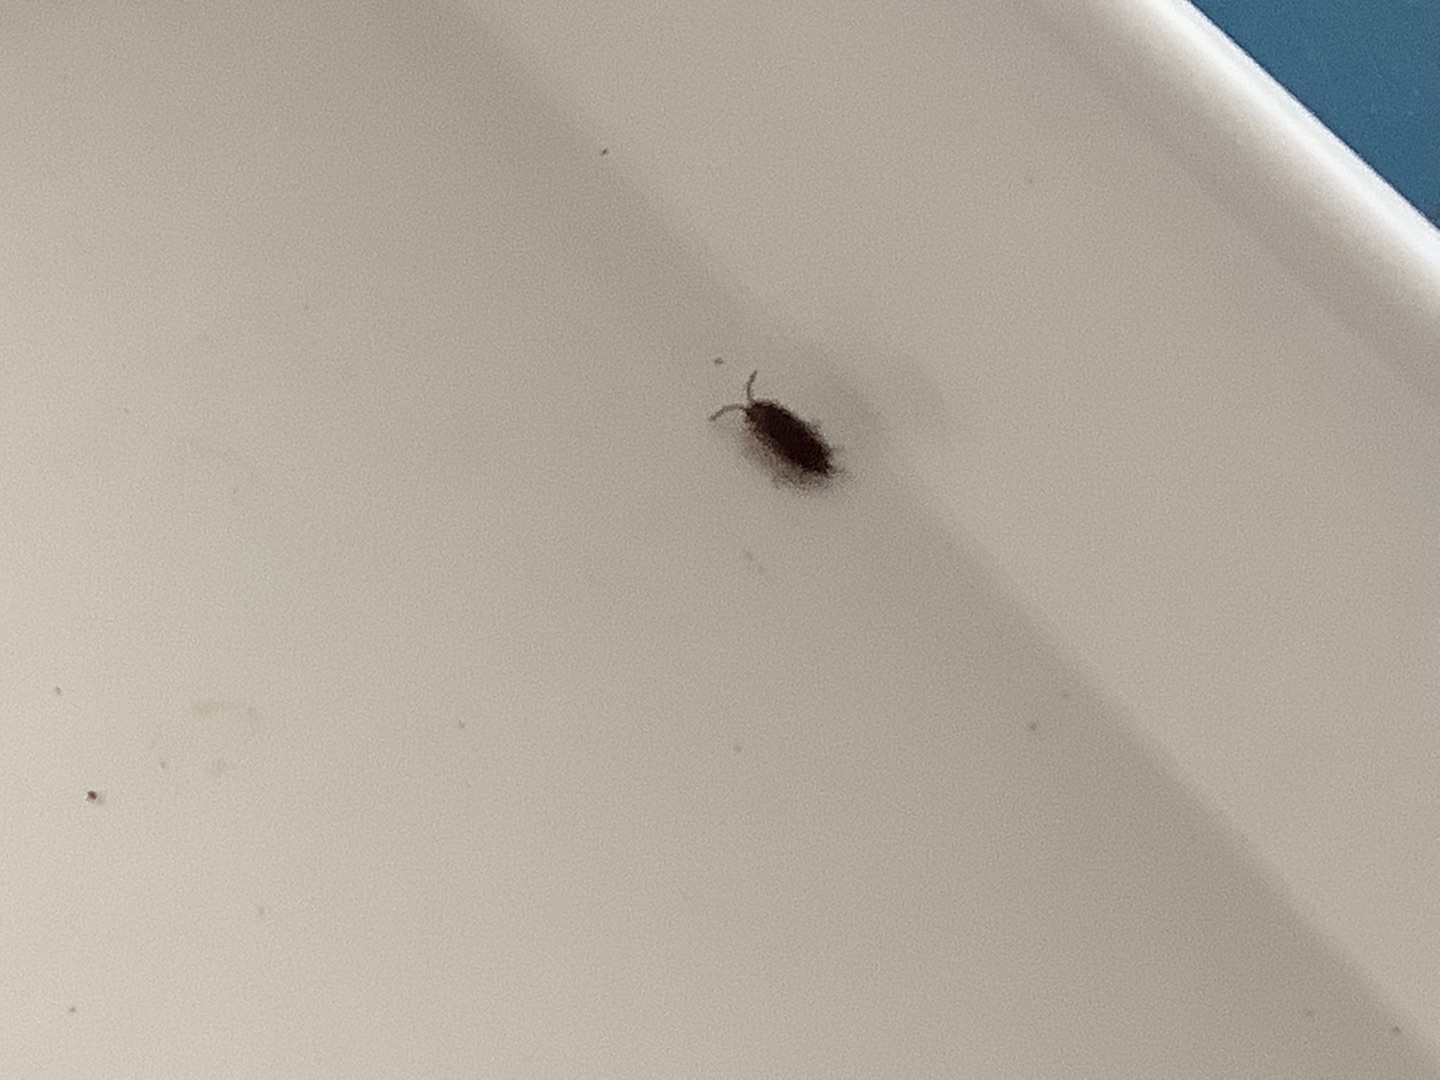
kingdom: Animalia
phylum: Arthropoda
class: Malacostraca
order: Isopoda
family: Oniscidae
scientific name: Oniscidae
